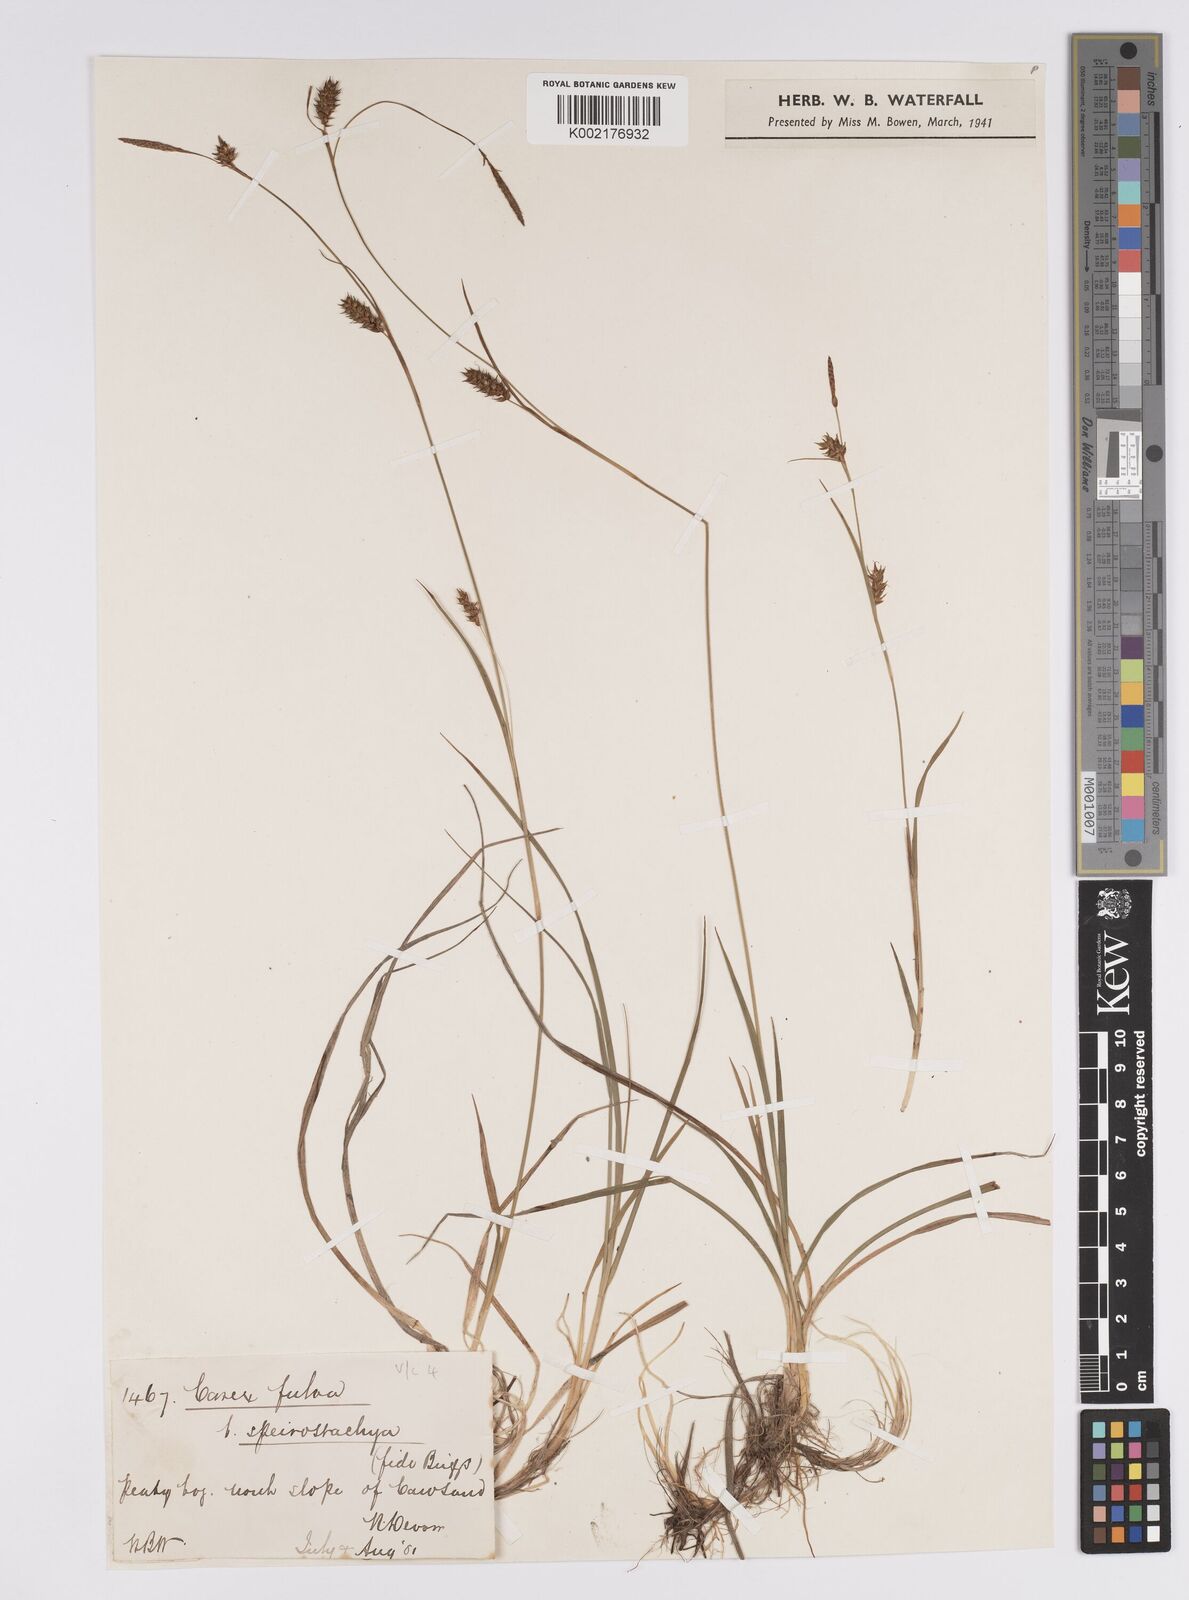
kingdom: Plantae
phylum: Tracheophyta
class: Liliopsida
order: Poales
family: Cyperaceae
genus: Carex
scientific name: Carex hostiana
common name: Tawny sedge
